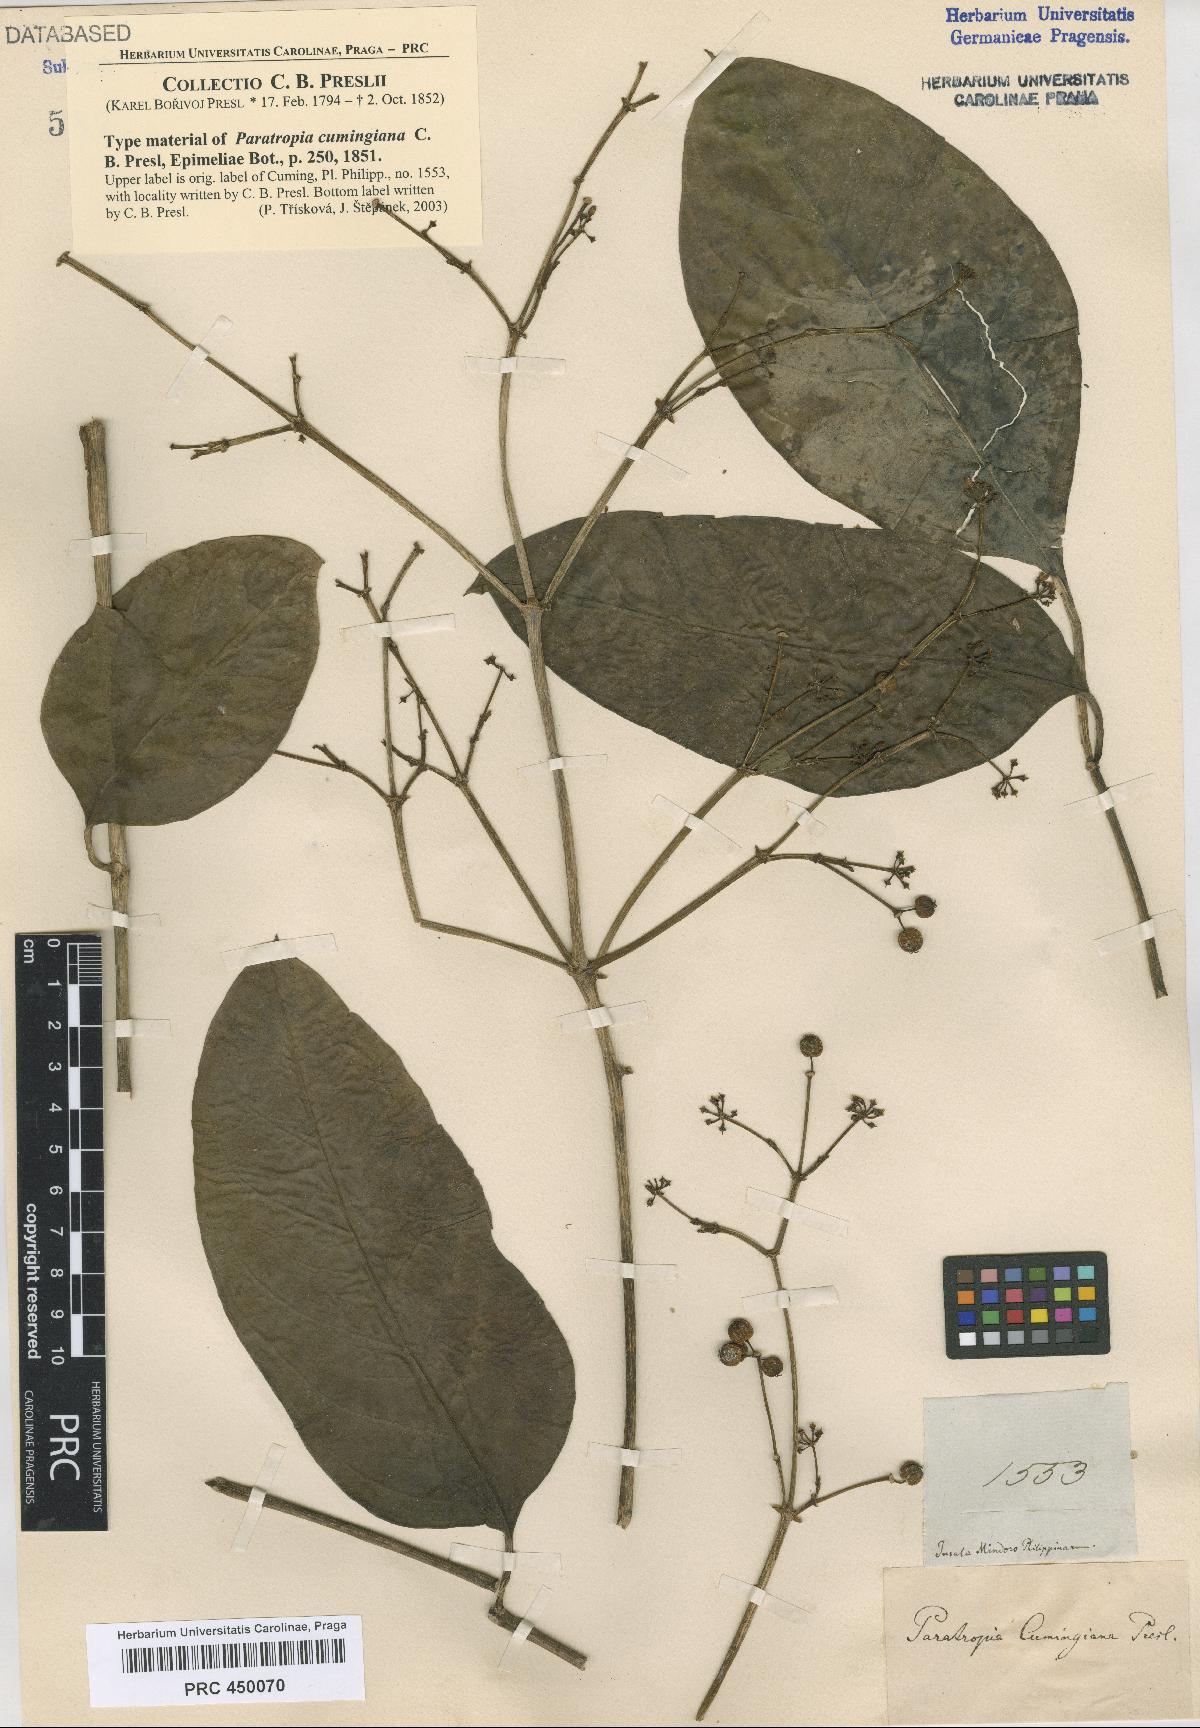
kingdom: Plantae
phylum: Tracheophyta
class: Magnoliopsida
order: Apiales
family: Araliaceae
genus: Polyscias
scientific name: Polyscias cumingiana
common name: Fern-leaf aralia
